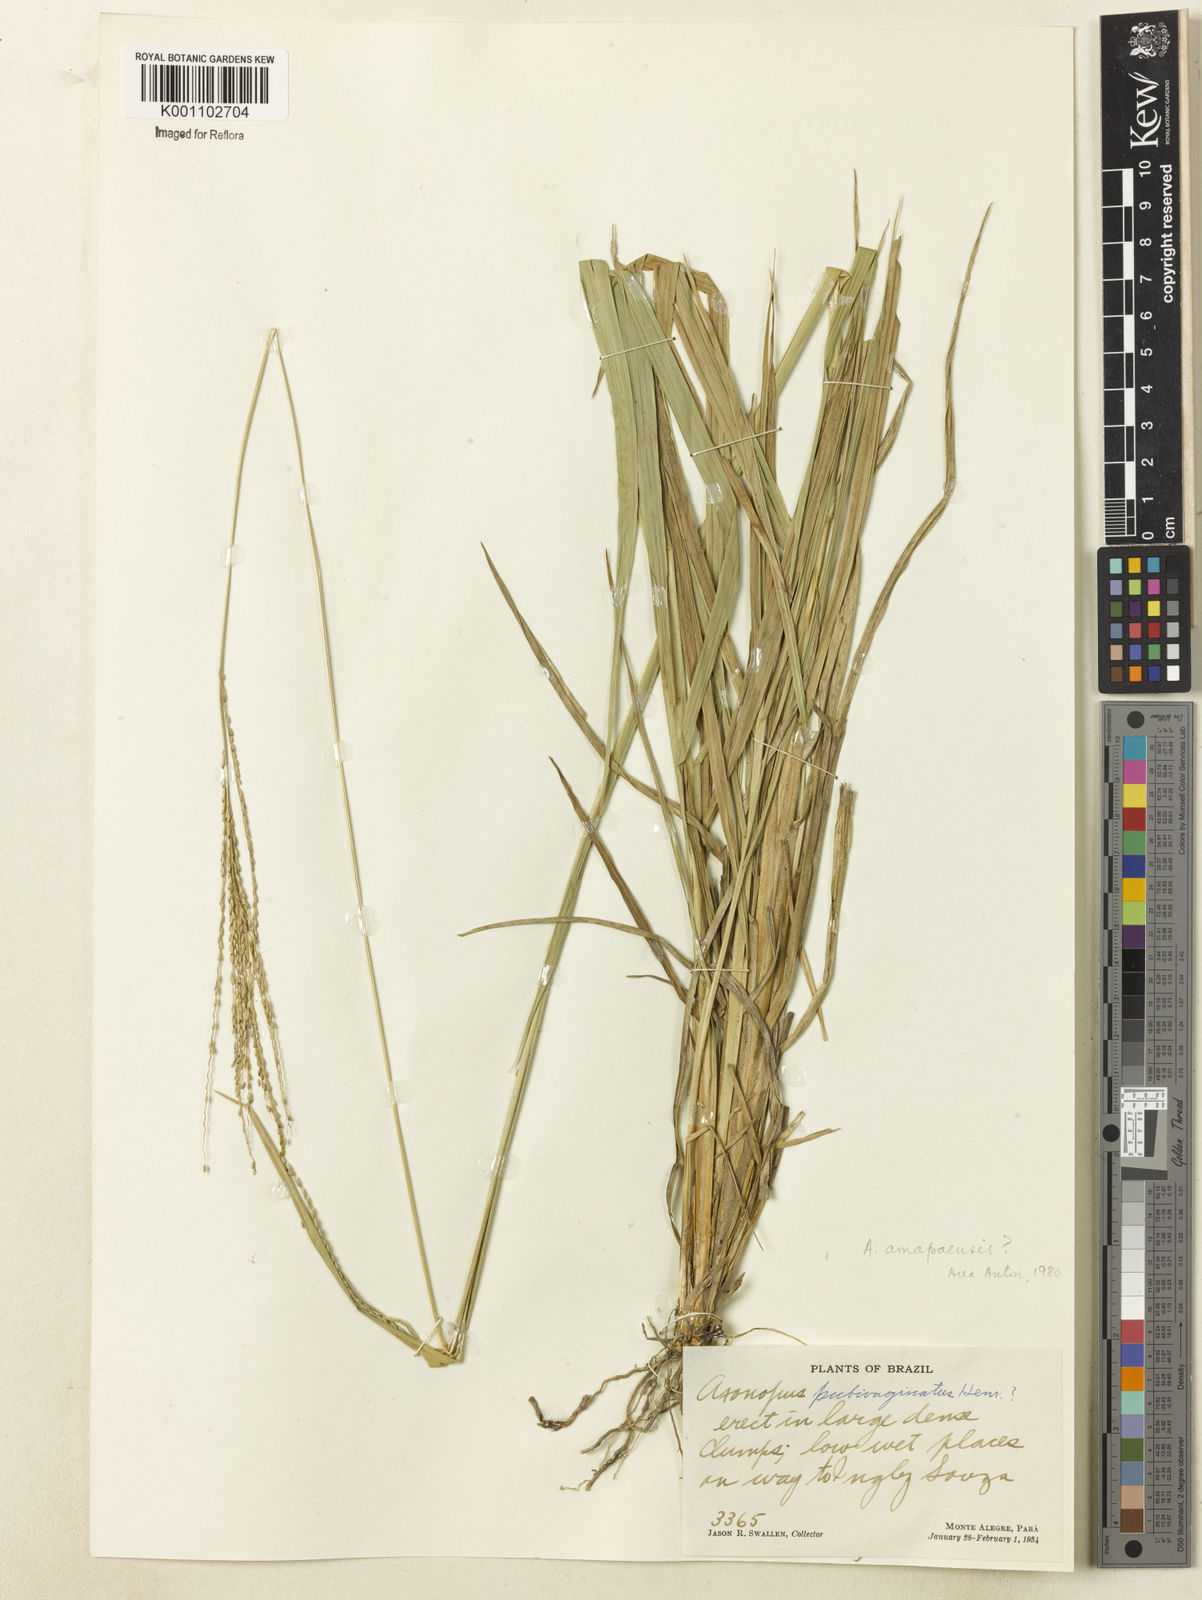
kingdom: Plantae
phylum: Tracheophyta
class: Liliopsida
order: Poales
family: Poaceae
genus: Axonopus
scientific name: Axonopus amapaensis
